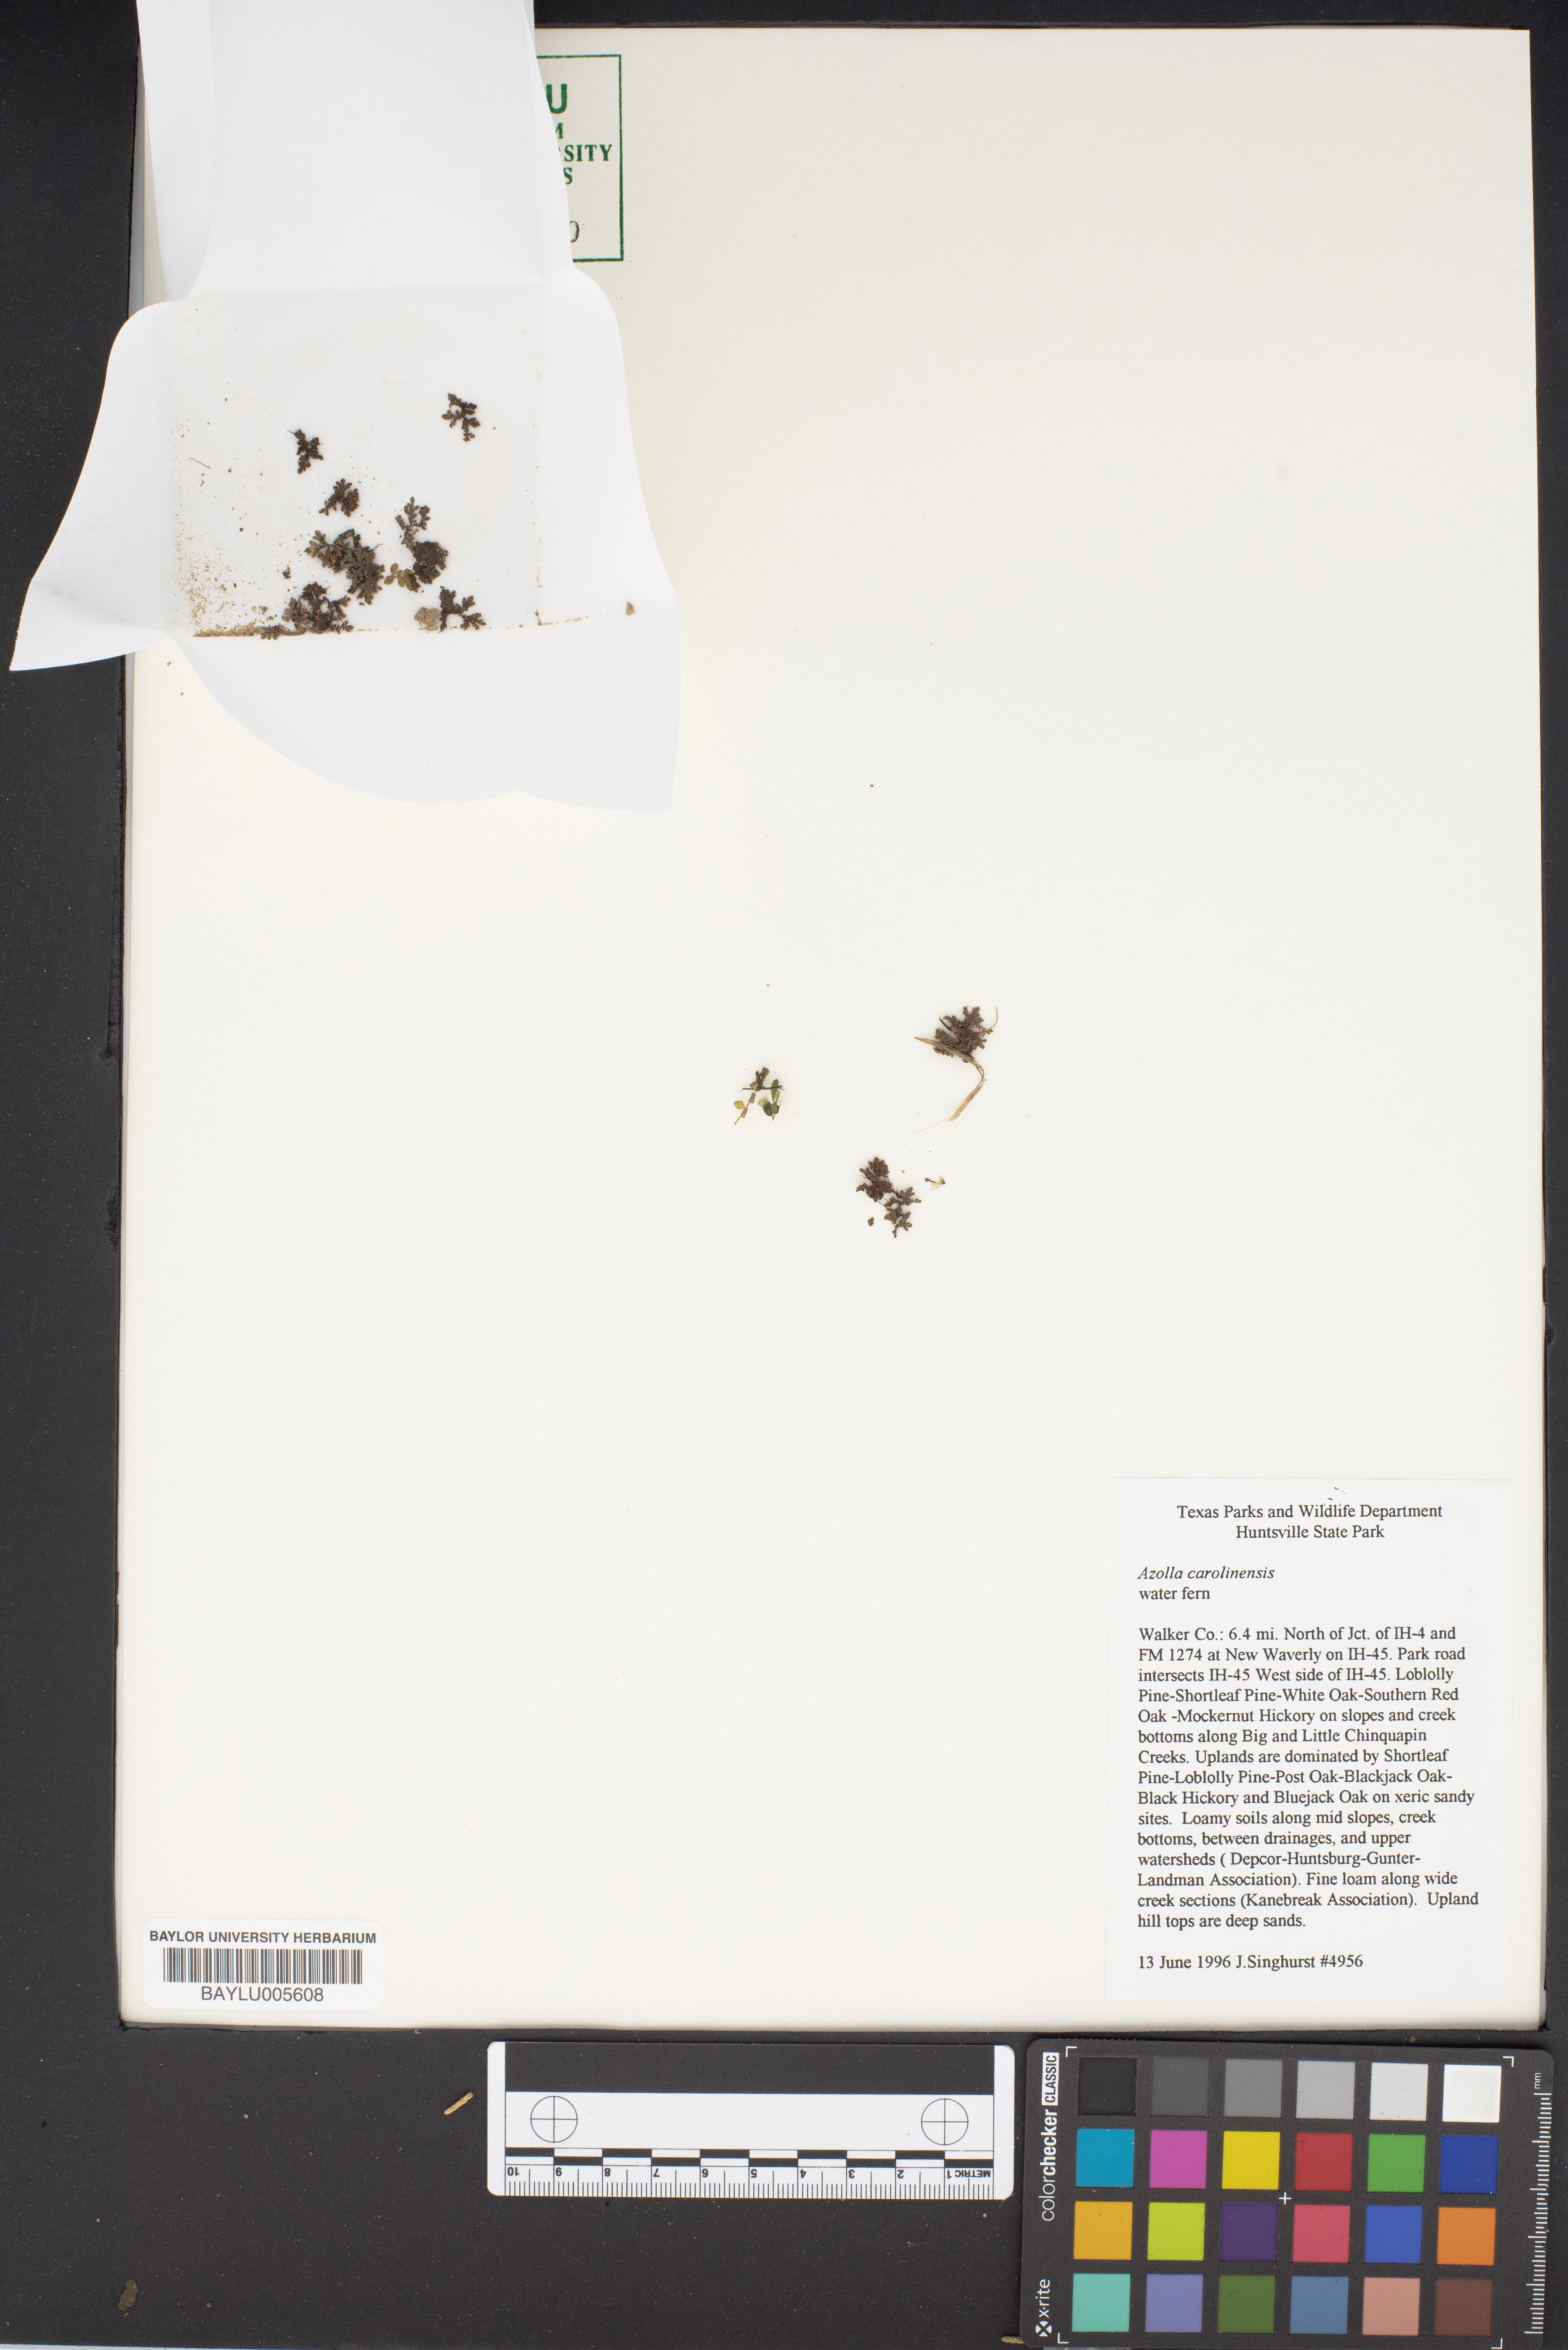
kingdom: Plantae
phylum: Tracheophyta
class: Polypodiopsida
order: Salviniales
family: Salviniaceae
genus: Azolla
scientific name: Azolla caroliniana
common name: Carolina mosquitofern
